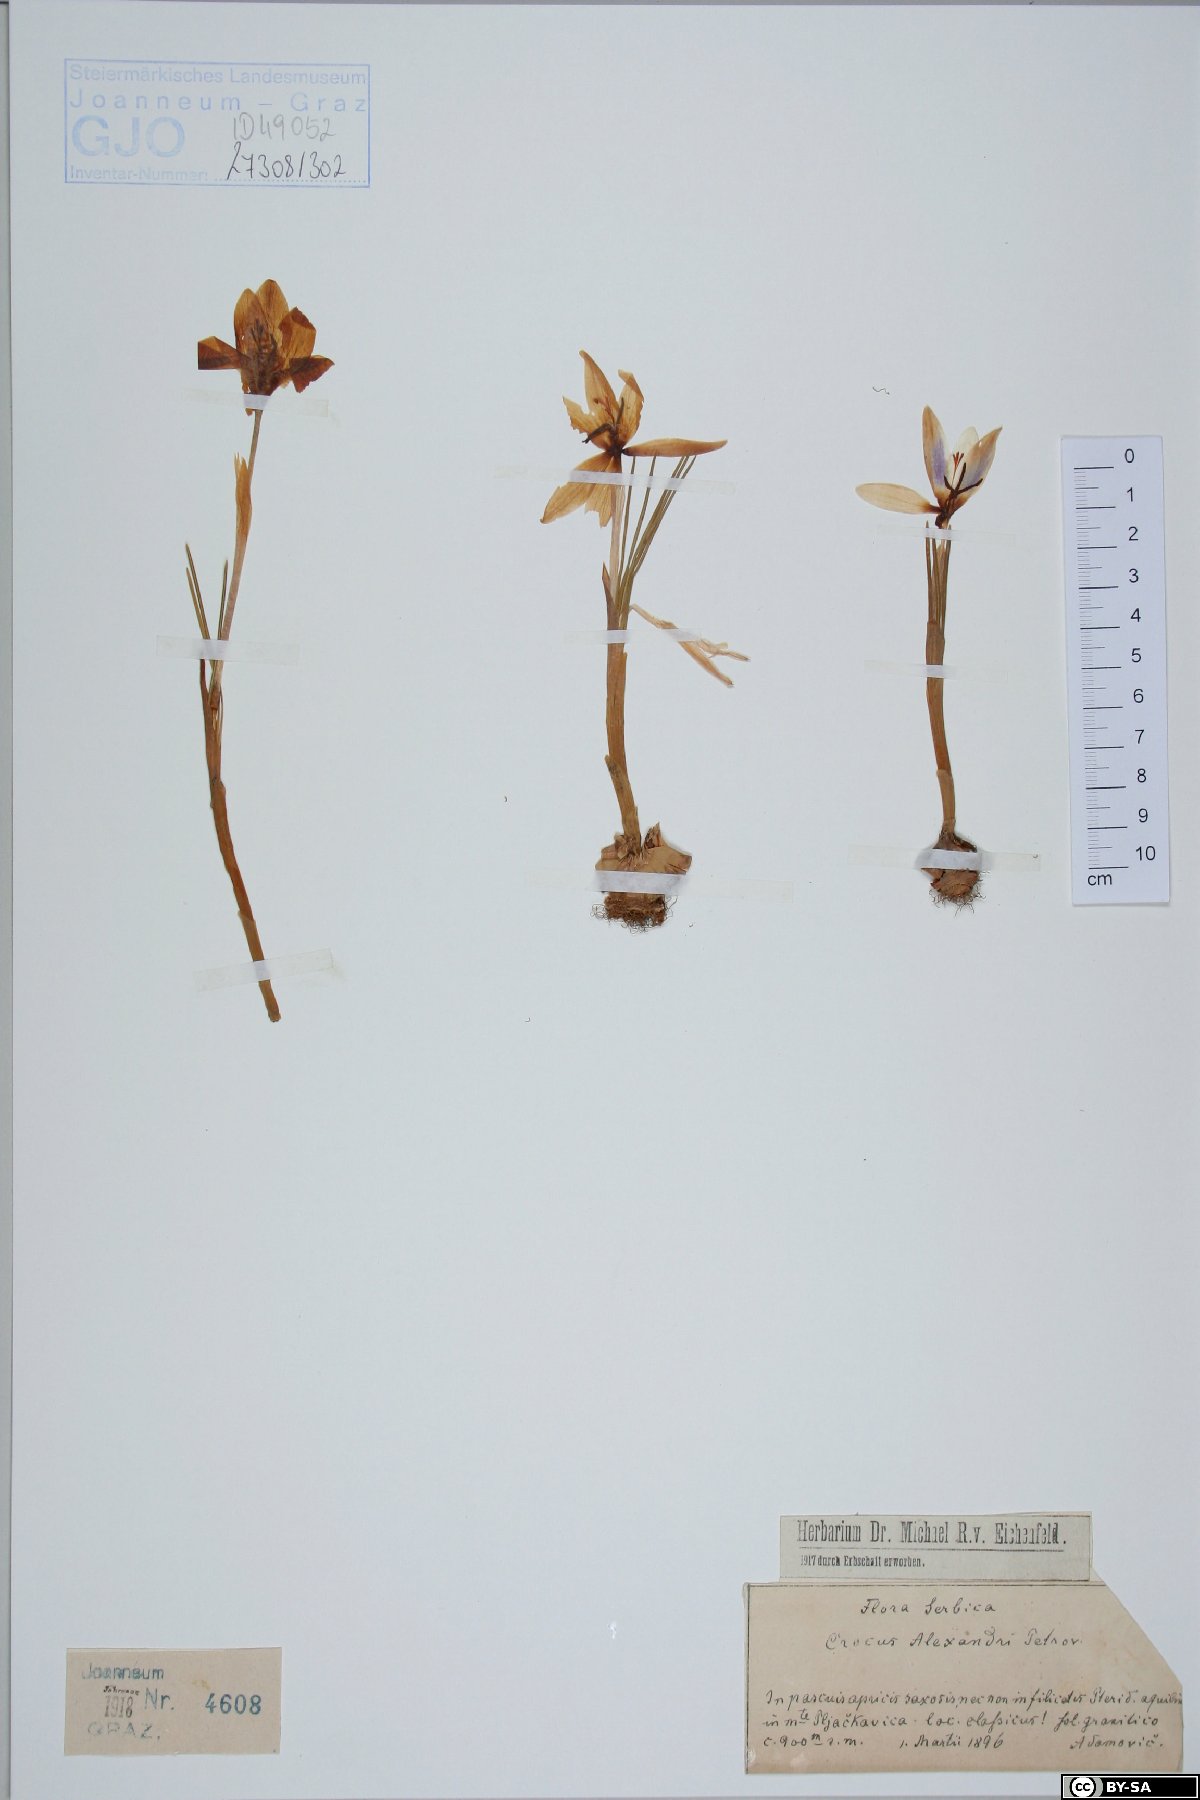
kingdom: Plantae
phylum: Tracheophyta
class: Liliopsida
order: Asparagales
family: Iridaceae
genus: Crocus
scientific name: Crocus alexandri
